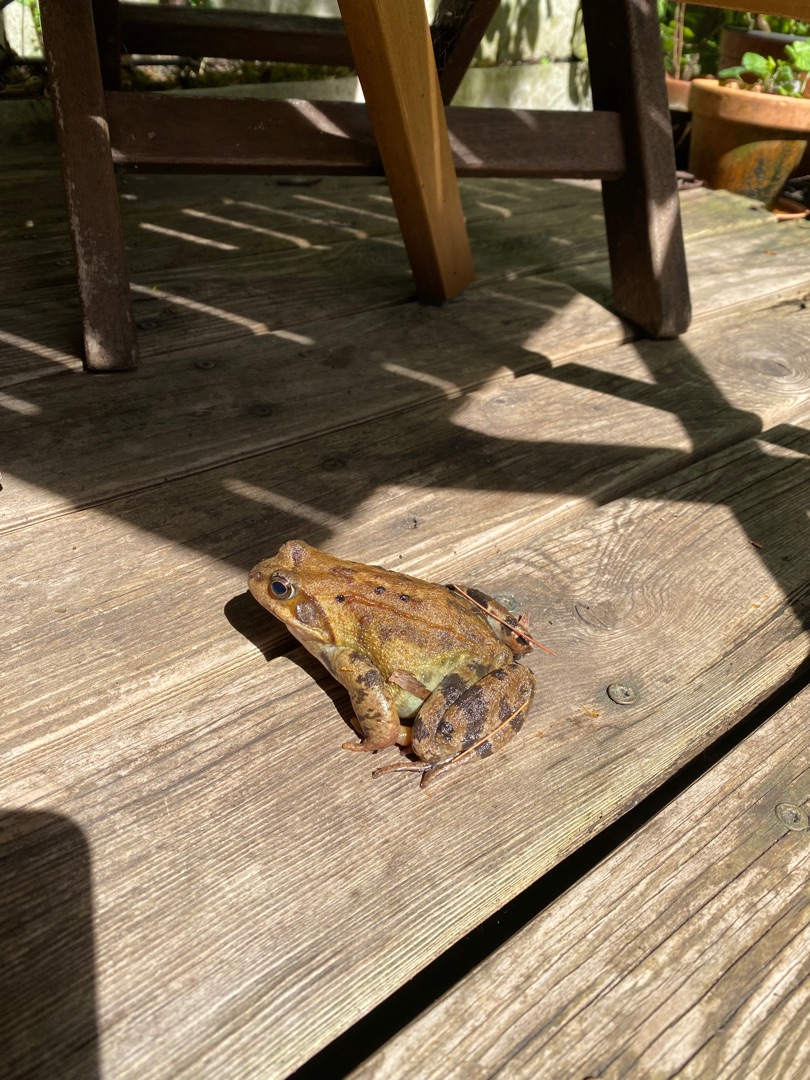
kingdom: Animalia
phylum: Chordata
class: Amphibia
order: Anura
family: Ranidae
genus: Rana
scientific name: Rana temporaria
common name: Butsnudet frø
